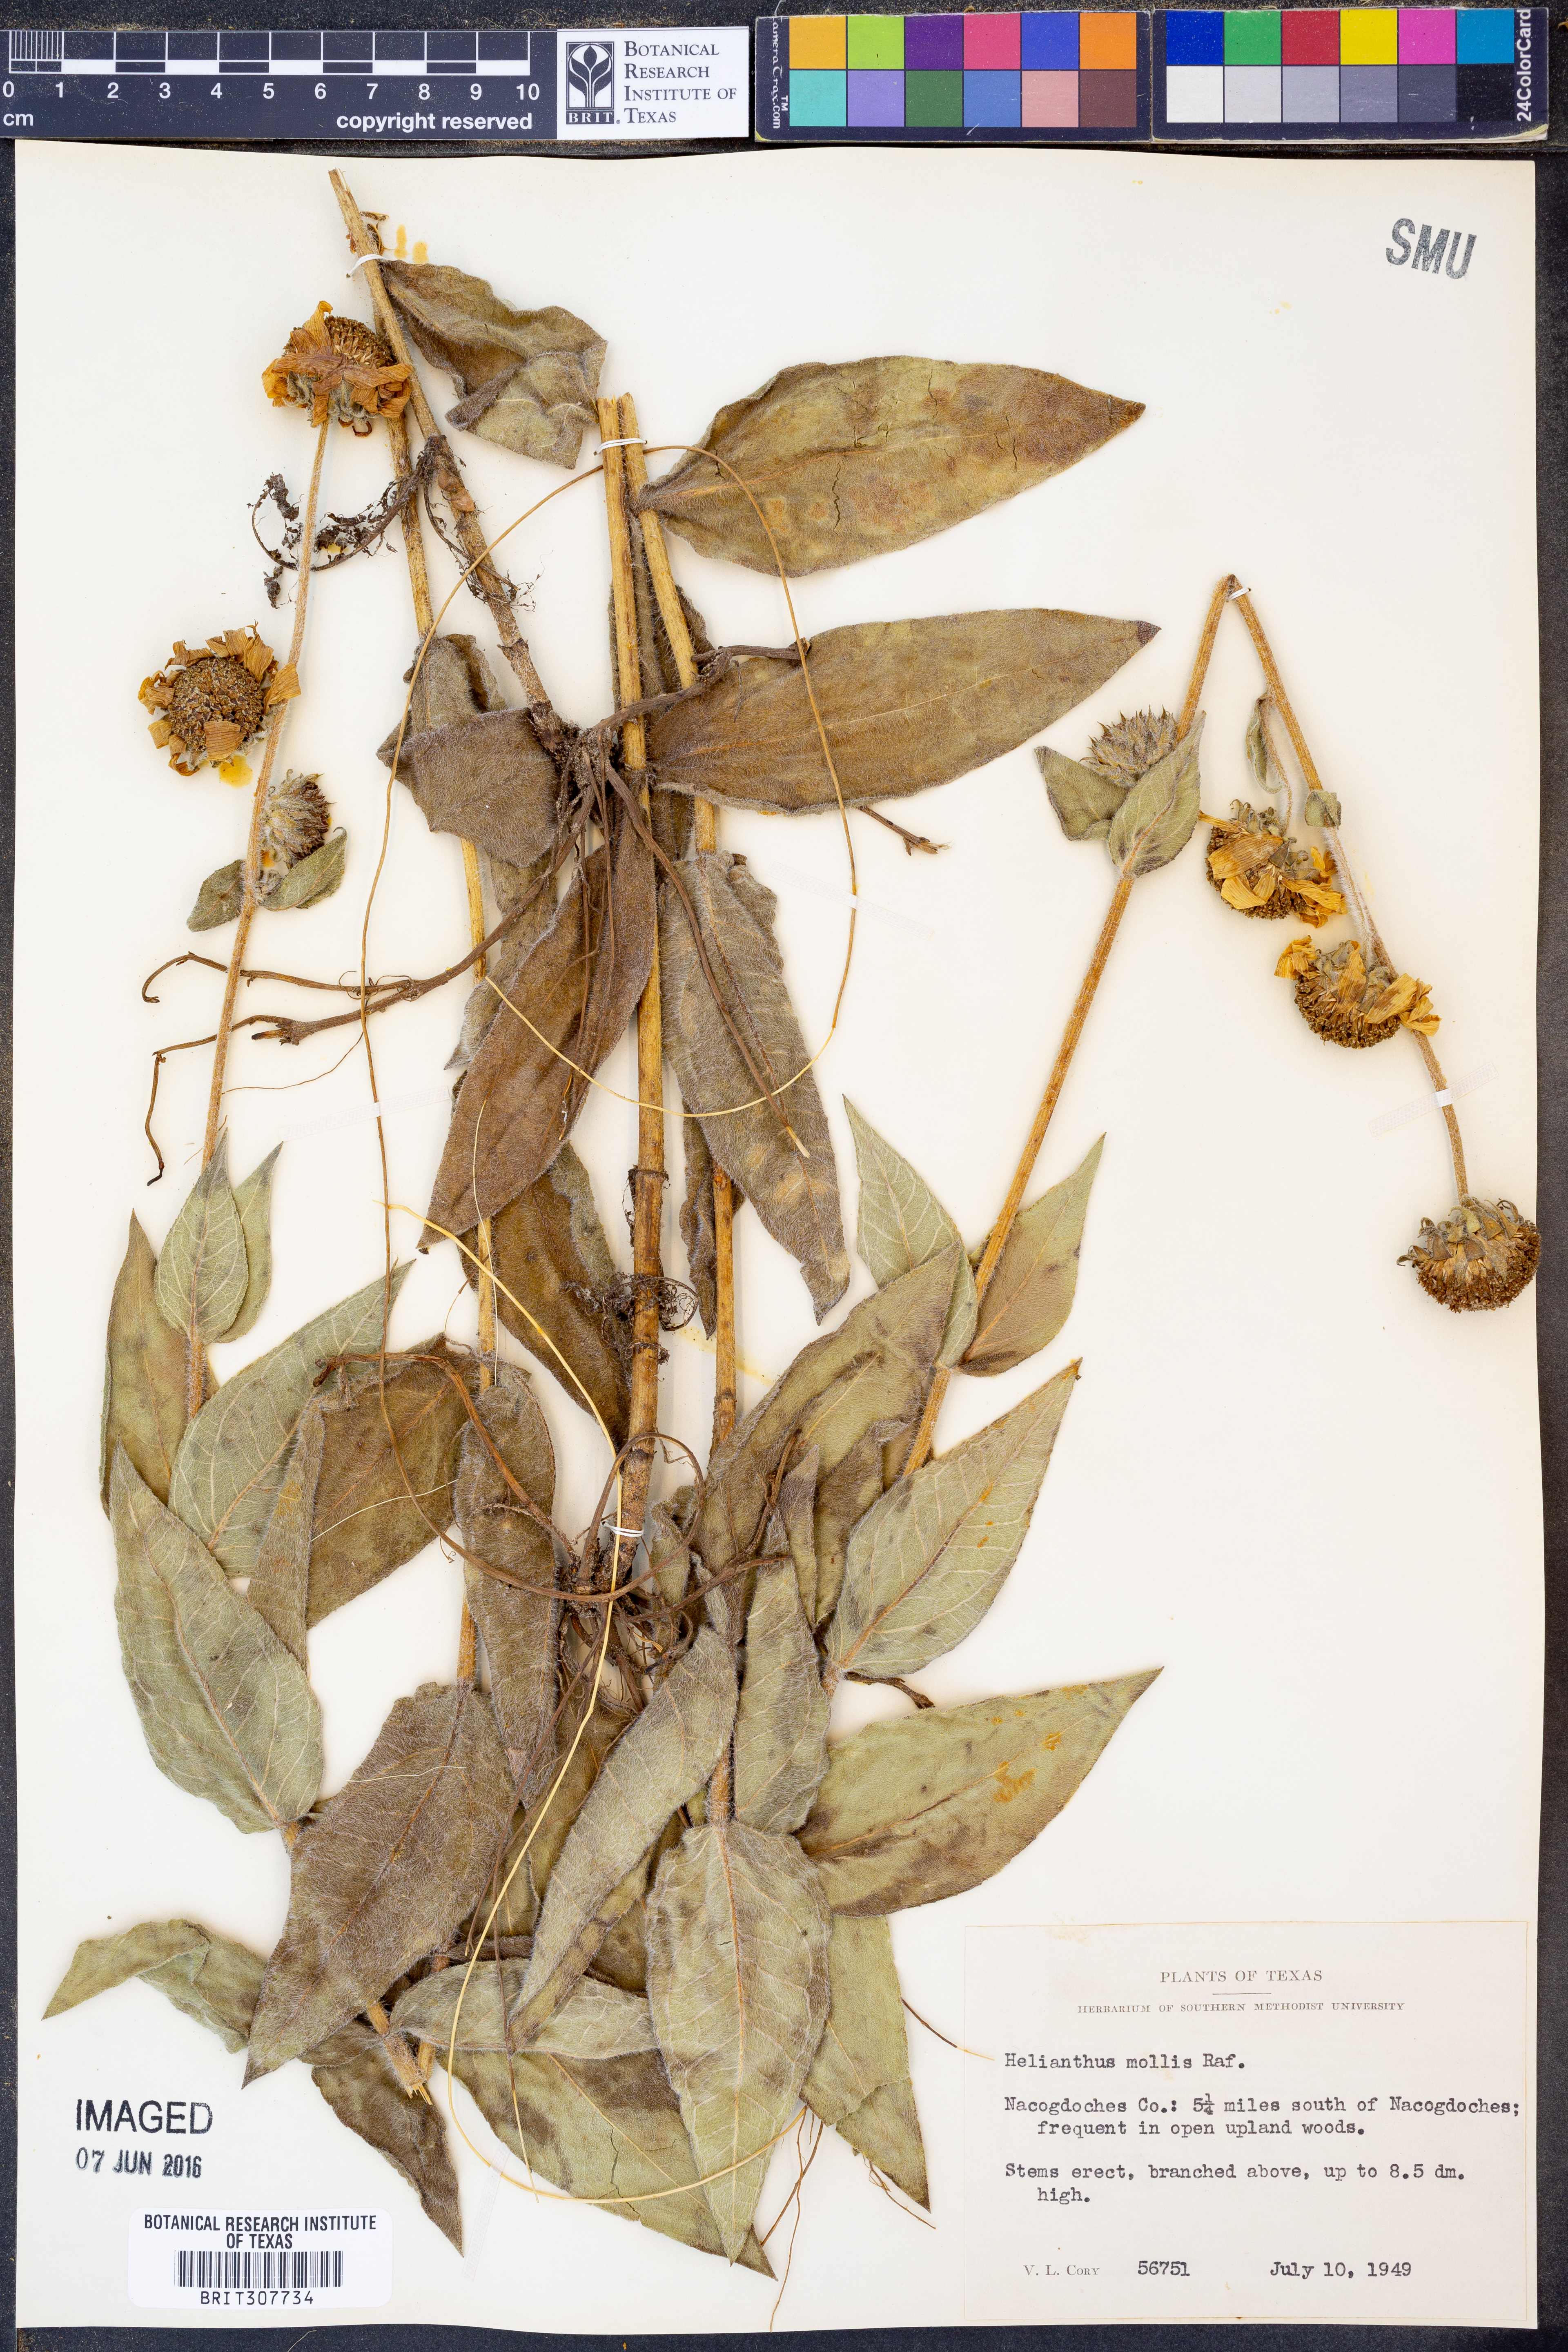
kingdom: Plantae
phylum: Tracheophyta
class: Magnoliopsida
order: Asterales
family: Asteraceae
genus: Helianthus
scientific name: Helianthus mollis
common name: Ashy sunflower
